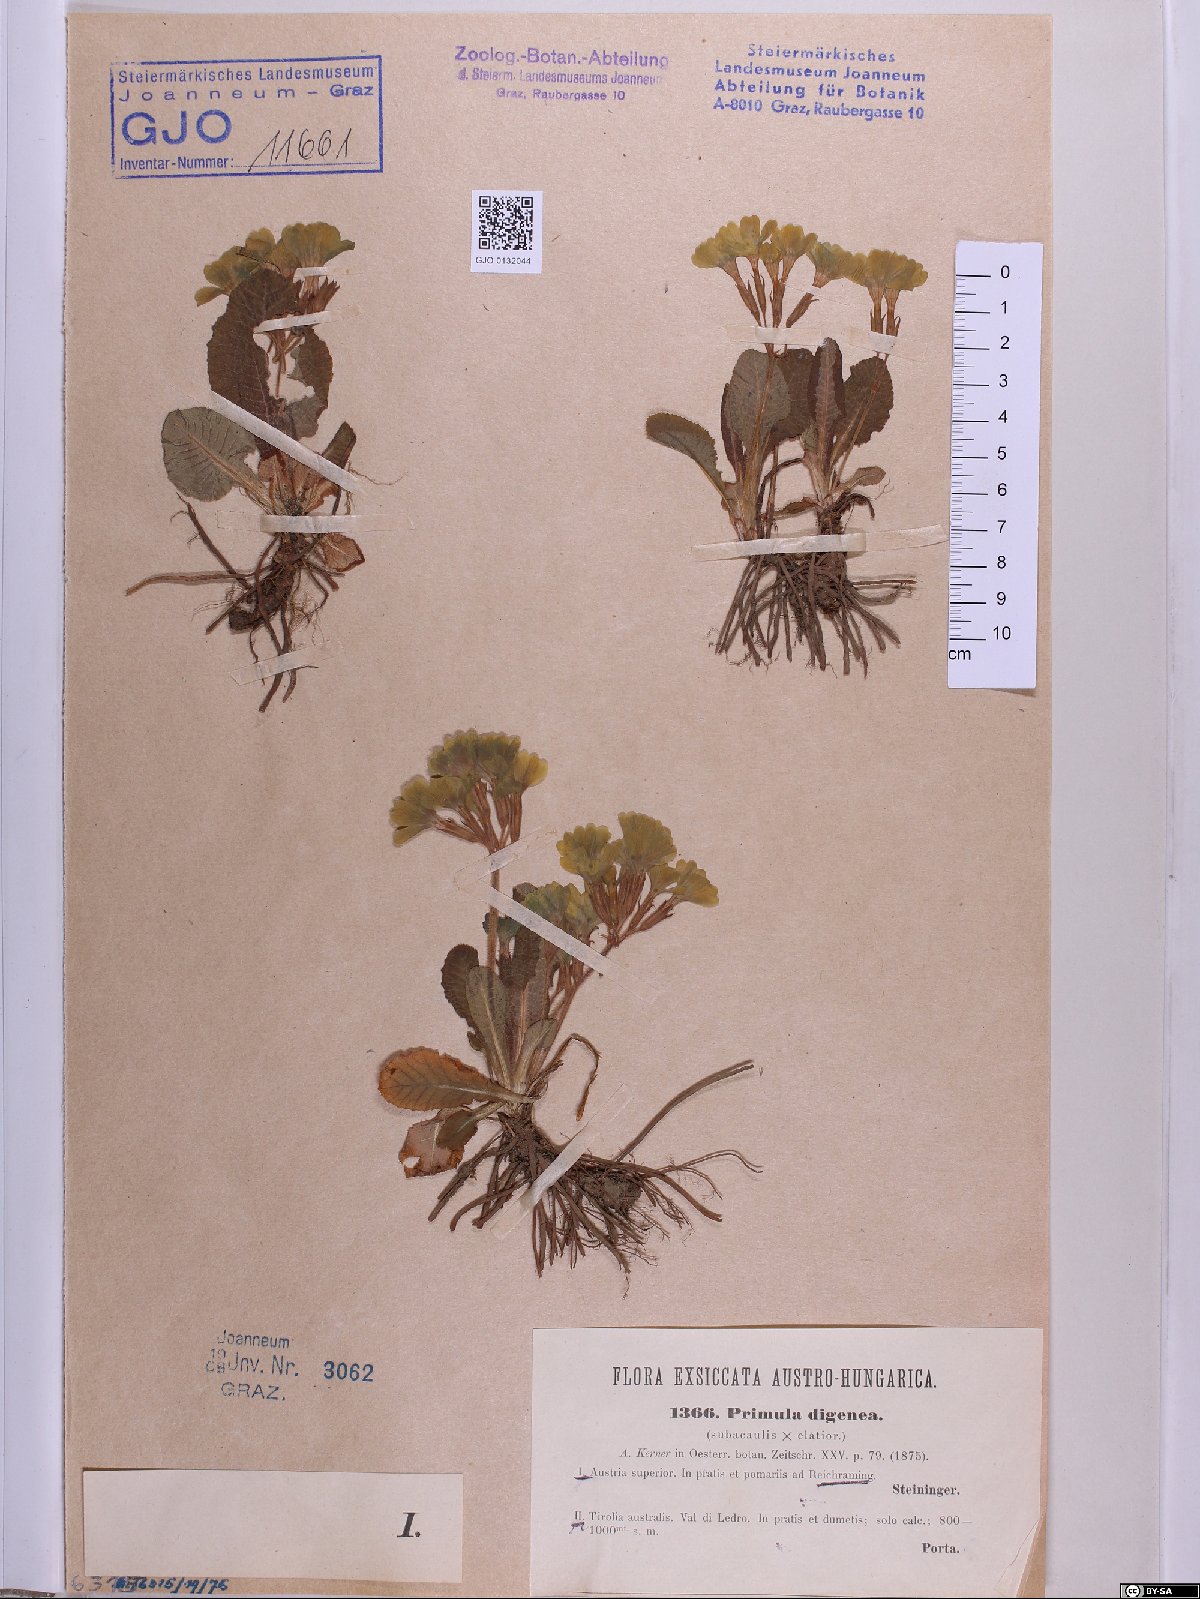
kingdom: Plantae
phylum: Tracheophyta
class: Magnoliopsida
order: Ericales
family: Primulaceae
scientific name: Primulaceae
